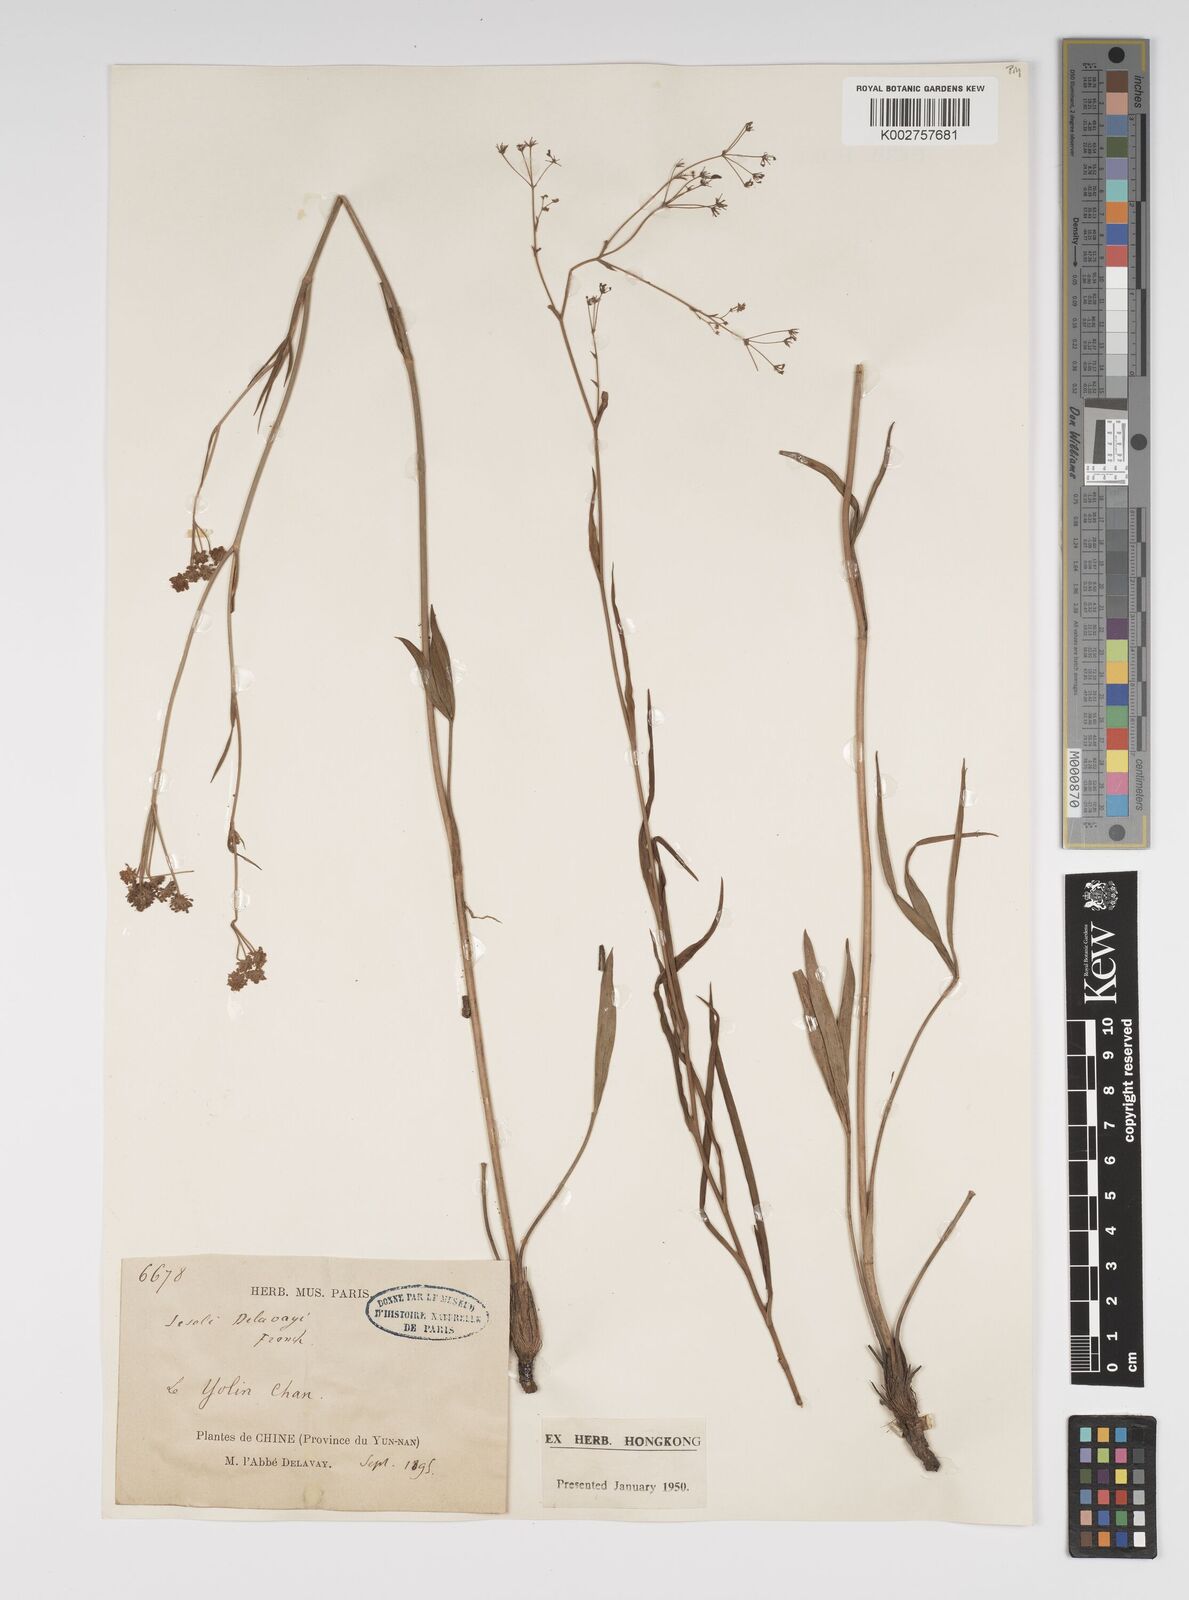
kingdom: Plantae
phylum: Tracheophyta
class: Magnoliopsida
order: Apiales
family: Apiaceae
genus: Seseli
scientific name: Seseli delavayi
